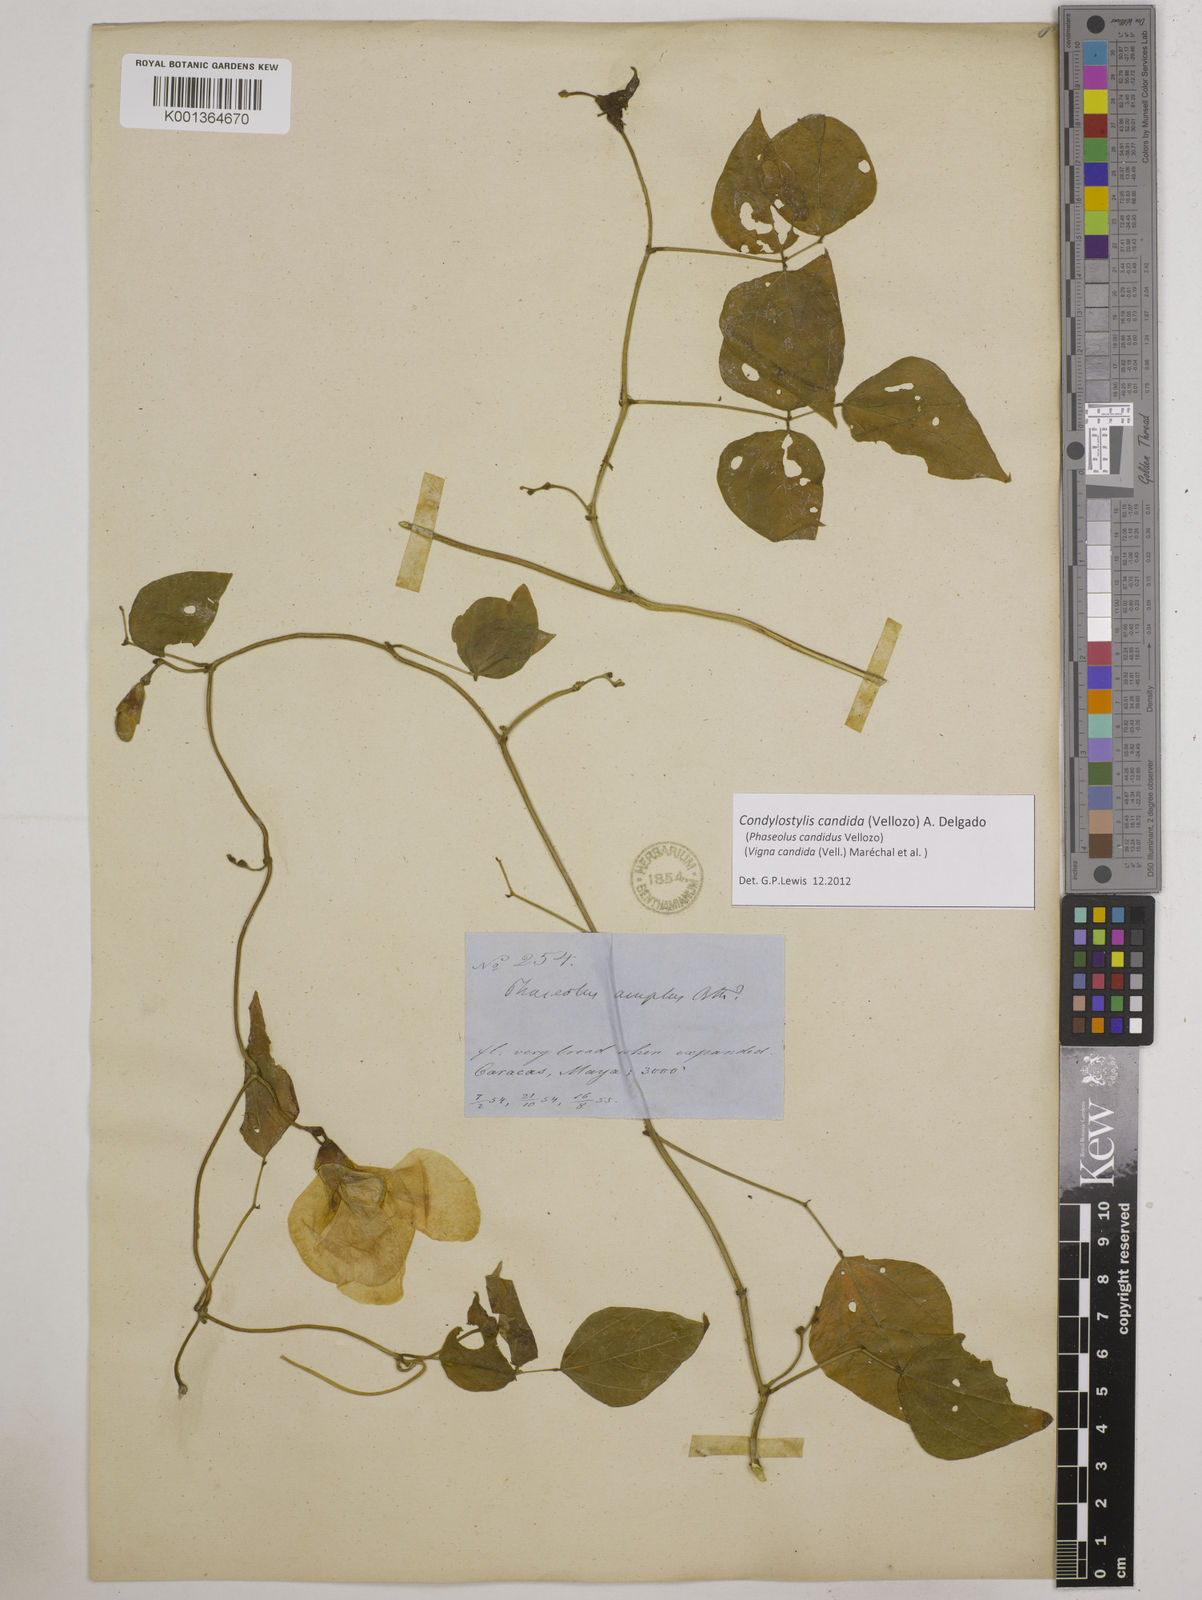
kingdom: Plantae
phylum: Tracheophyta
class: Magnoliopsida
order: Fabales
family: Fabaceae
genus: Condylostylis
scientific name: Condylostylis candida
